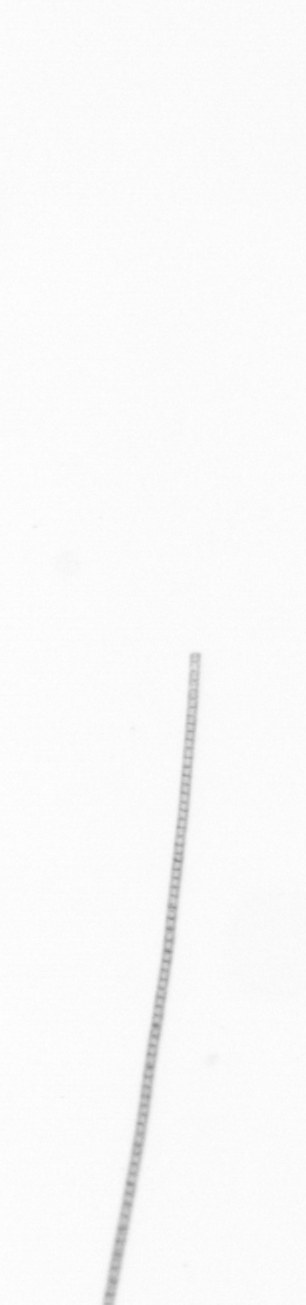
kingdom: Chromista
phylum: Ochrophyta
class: Bacillariophyceae
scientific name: Bacillariophyceae
